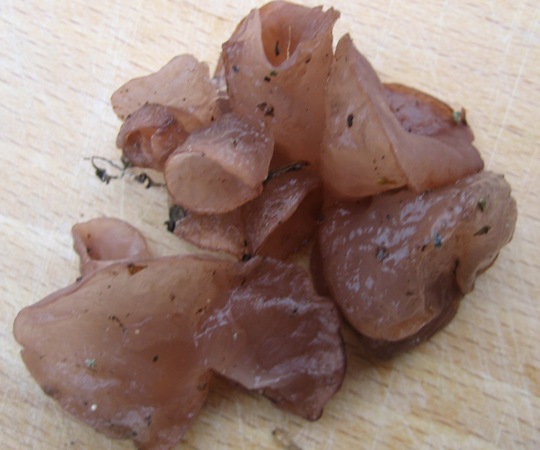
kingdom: Fungi
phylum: Ascomycota
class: Leotiomycetes
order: Helotiales
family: Gelatinodiscaceae
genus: Neobulgaria
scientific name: Neobulgaria pura
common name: bleg bævreskive
